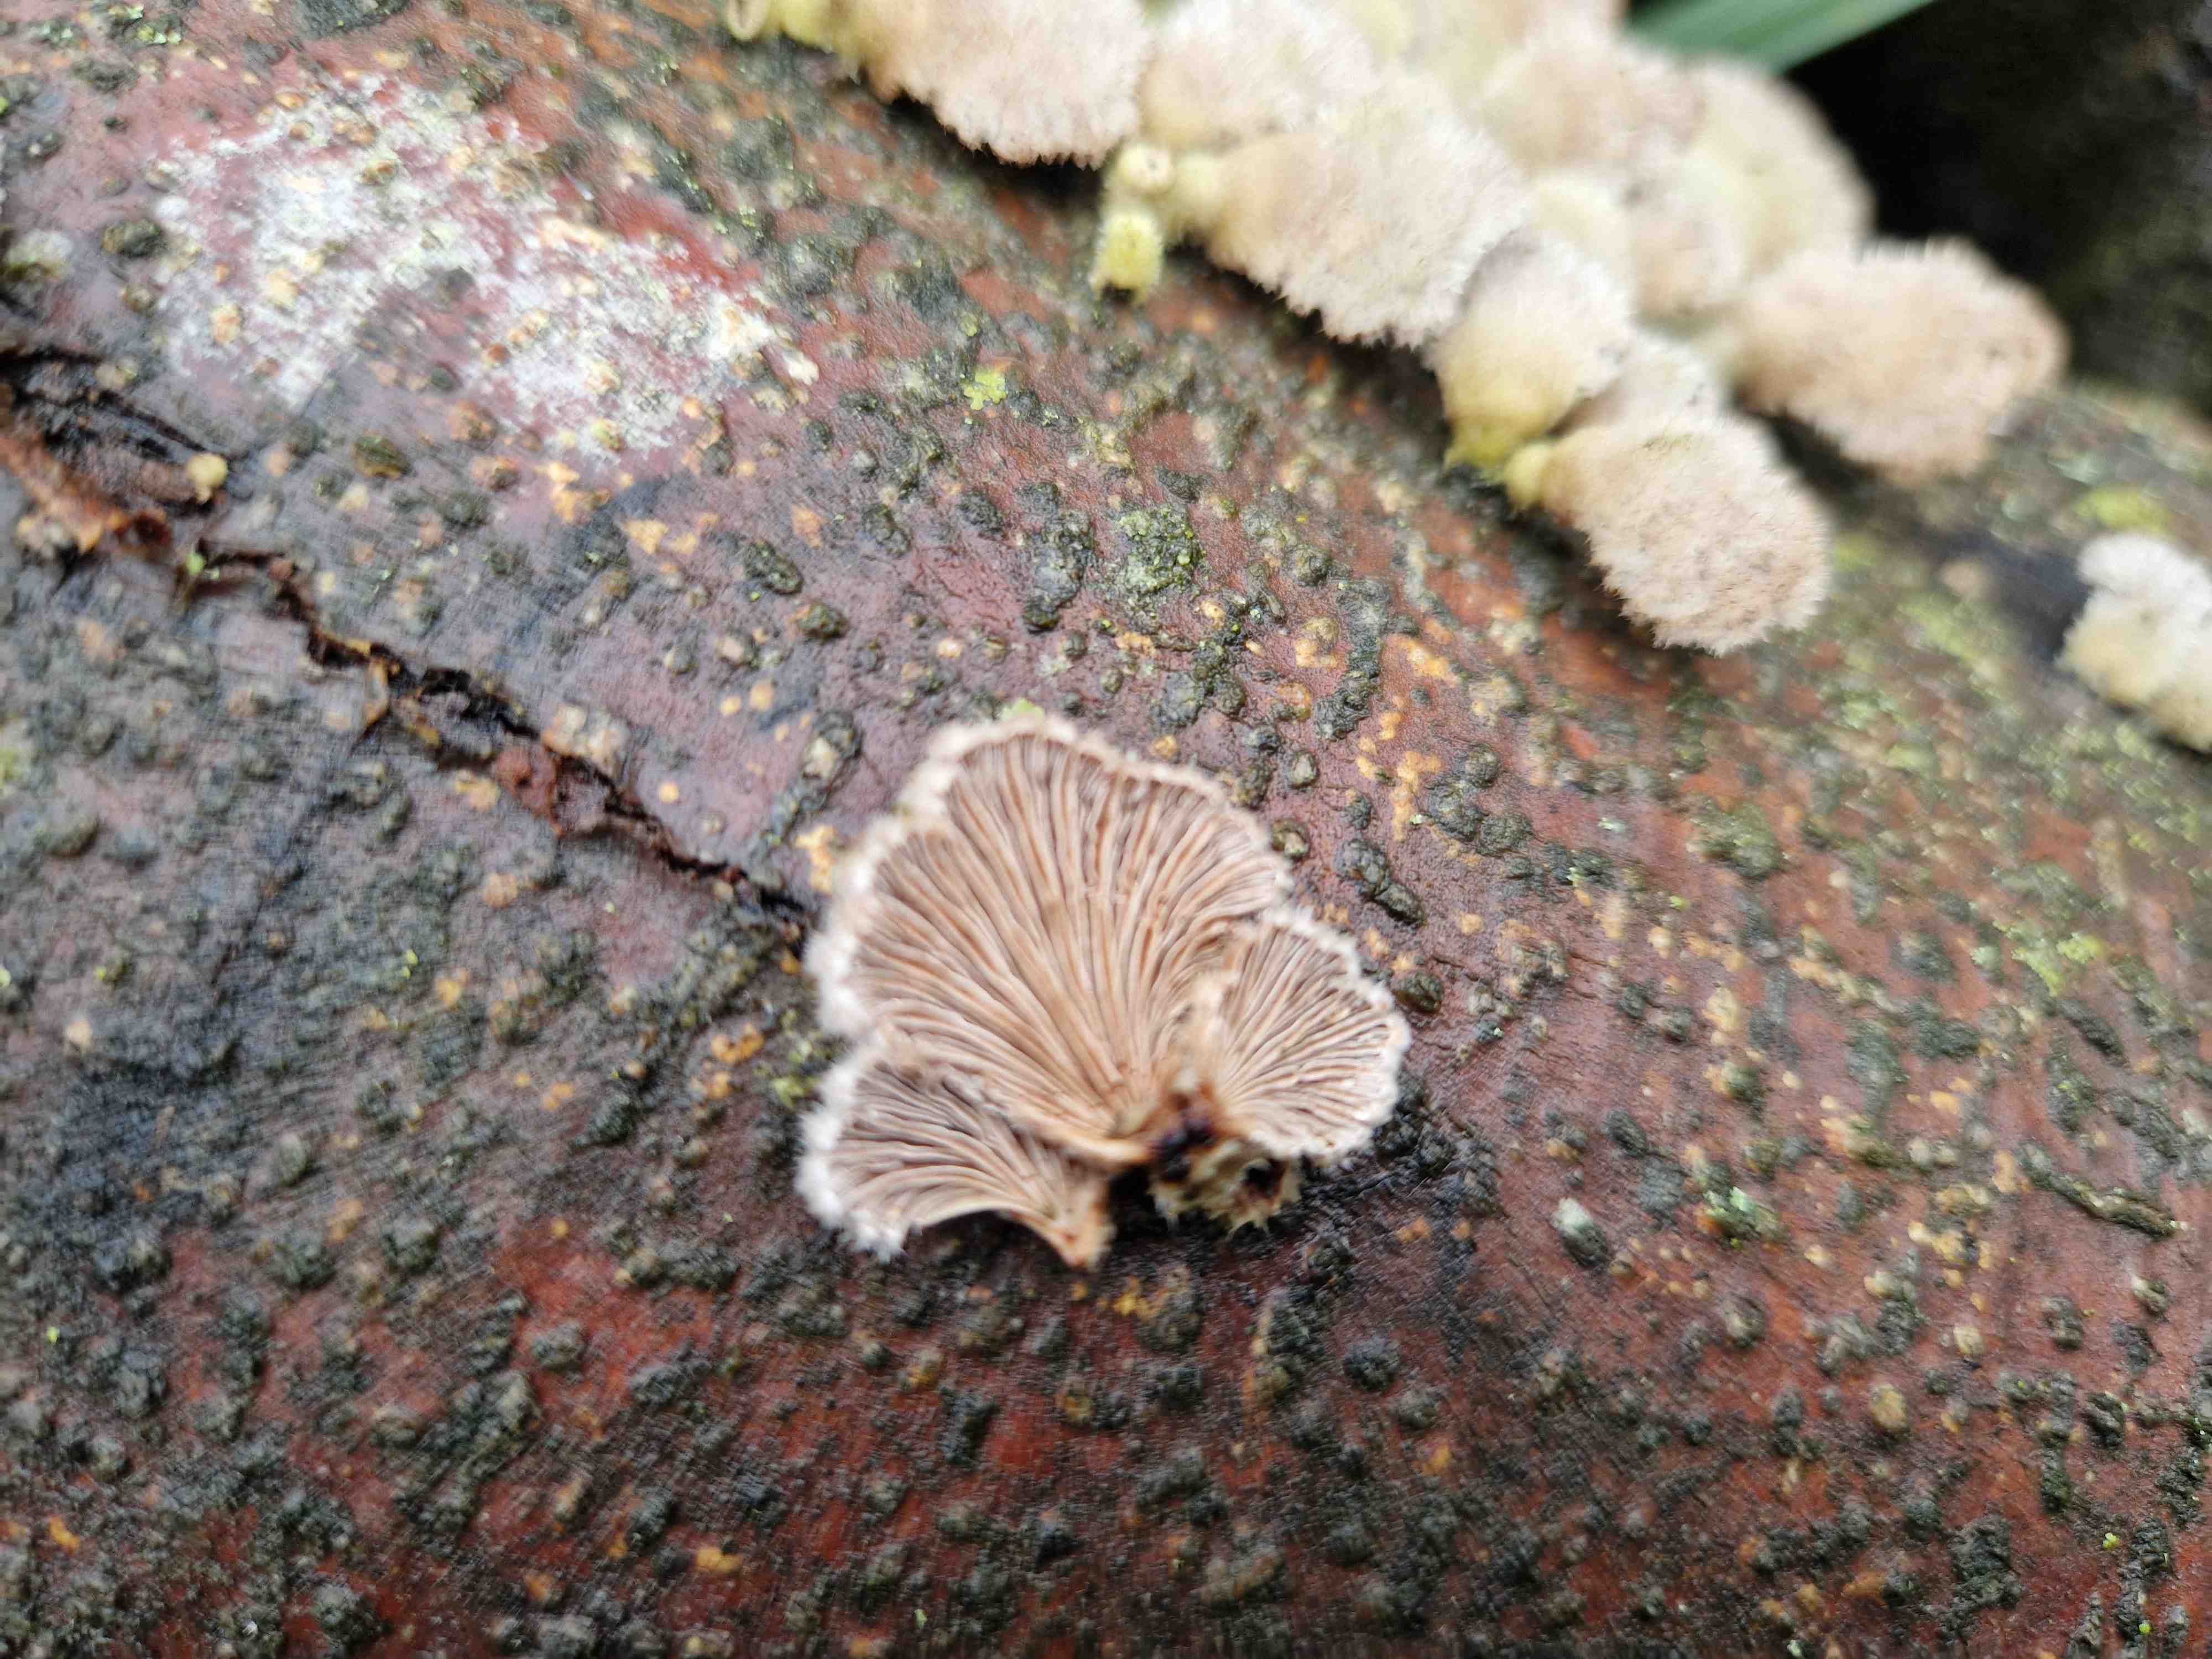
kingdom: Fungi
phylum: Basidiomycota
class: Agaricomycetes
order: Agaricales
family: Schizophyllaceae
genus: Schizophyllum
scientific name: Schizophyllum commune
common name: kløvblad
